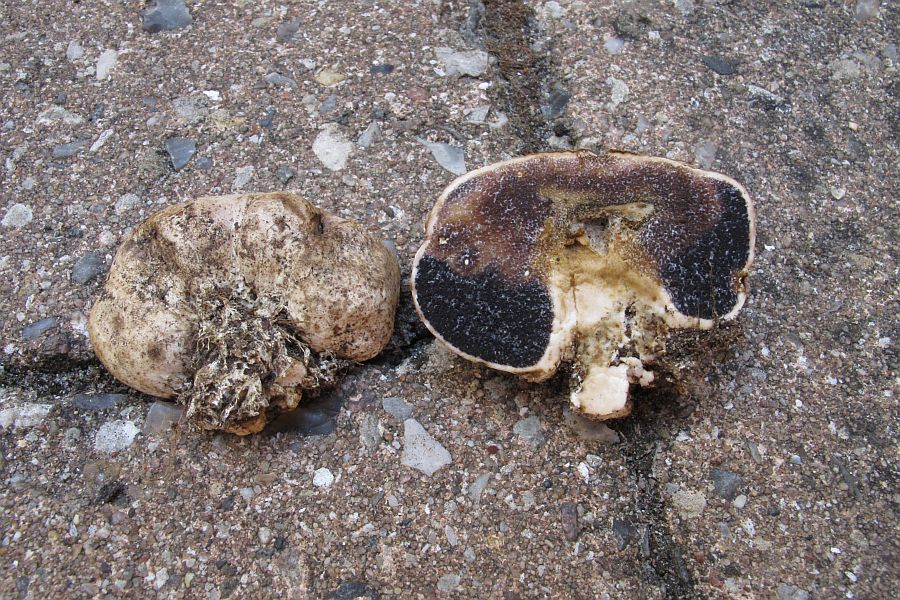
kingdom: Fungi
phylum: Basidiomycota
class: Agaricomycetes
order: Boletales
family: Sclerodermataceae
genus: Scleroderma
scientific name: Scleroderma bovista
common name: bovist-bruskbold
